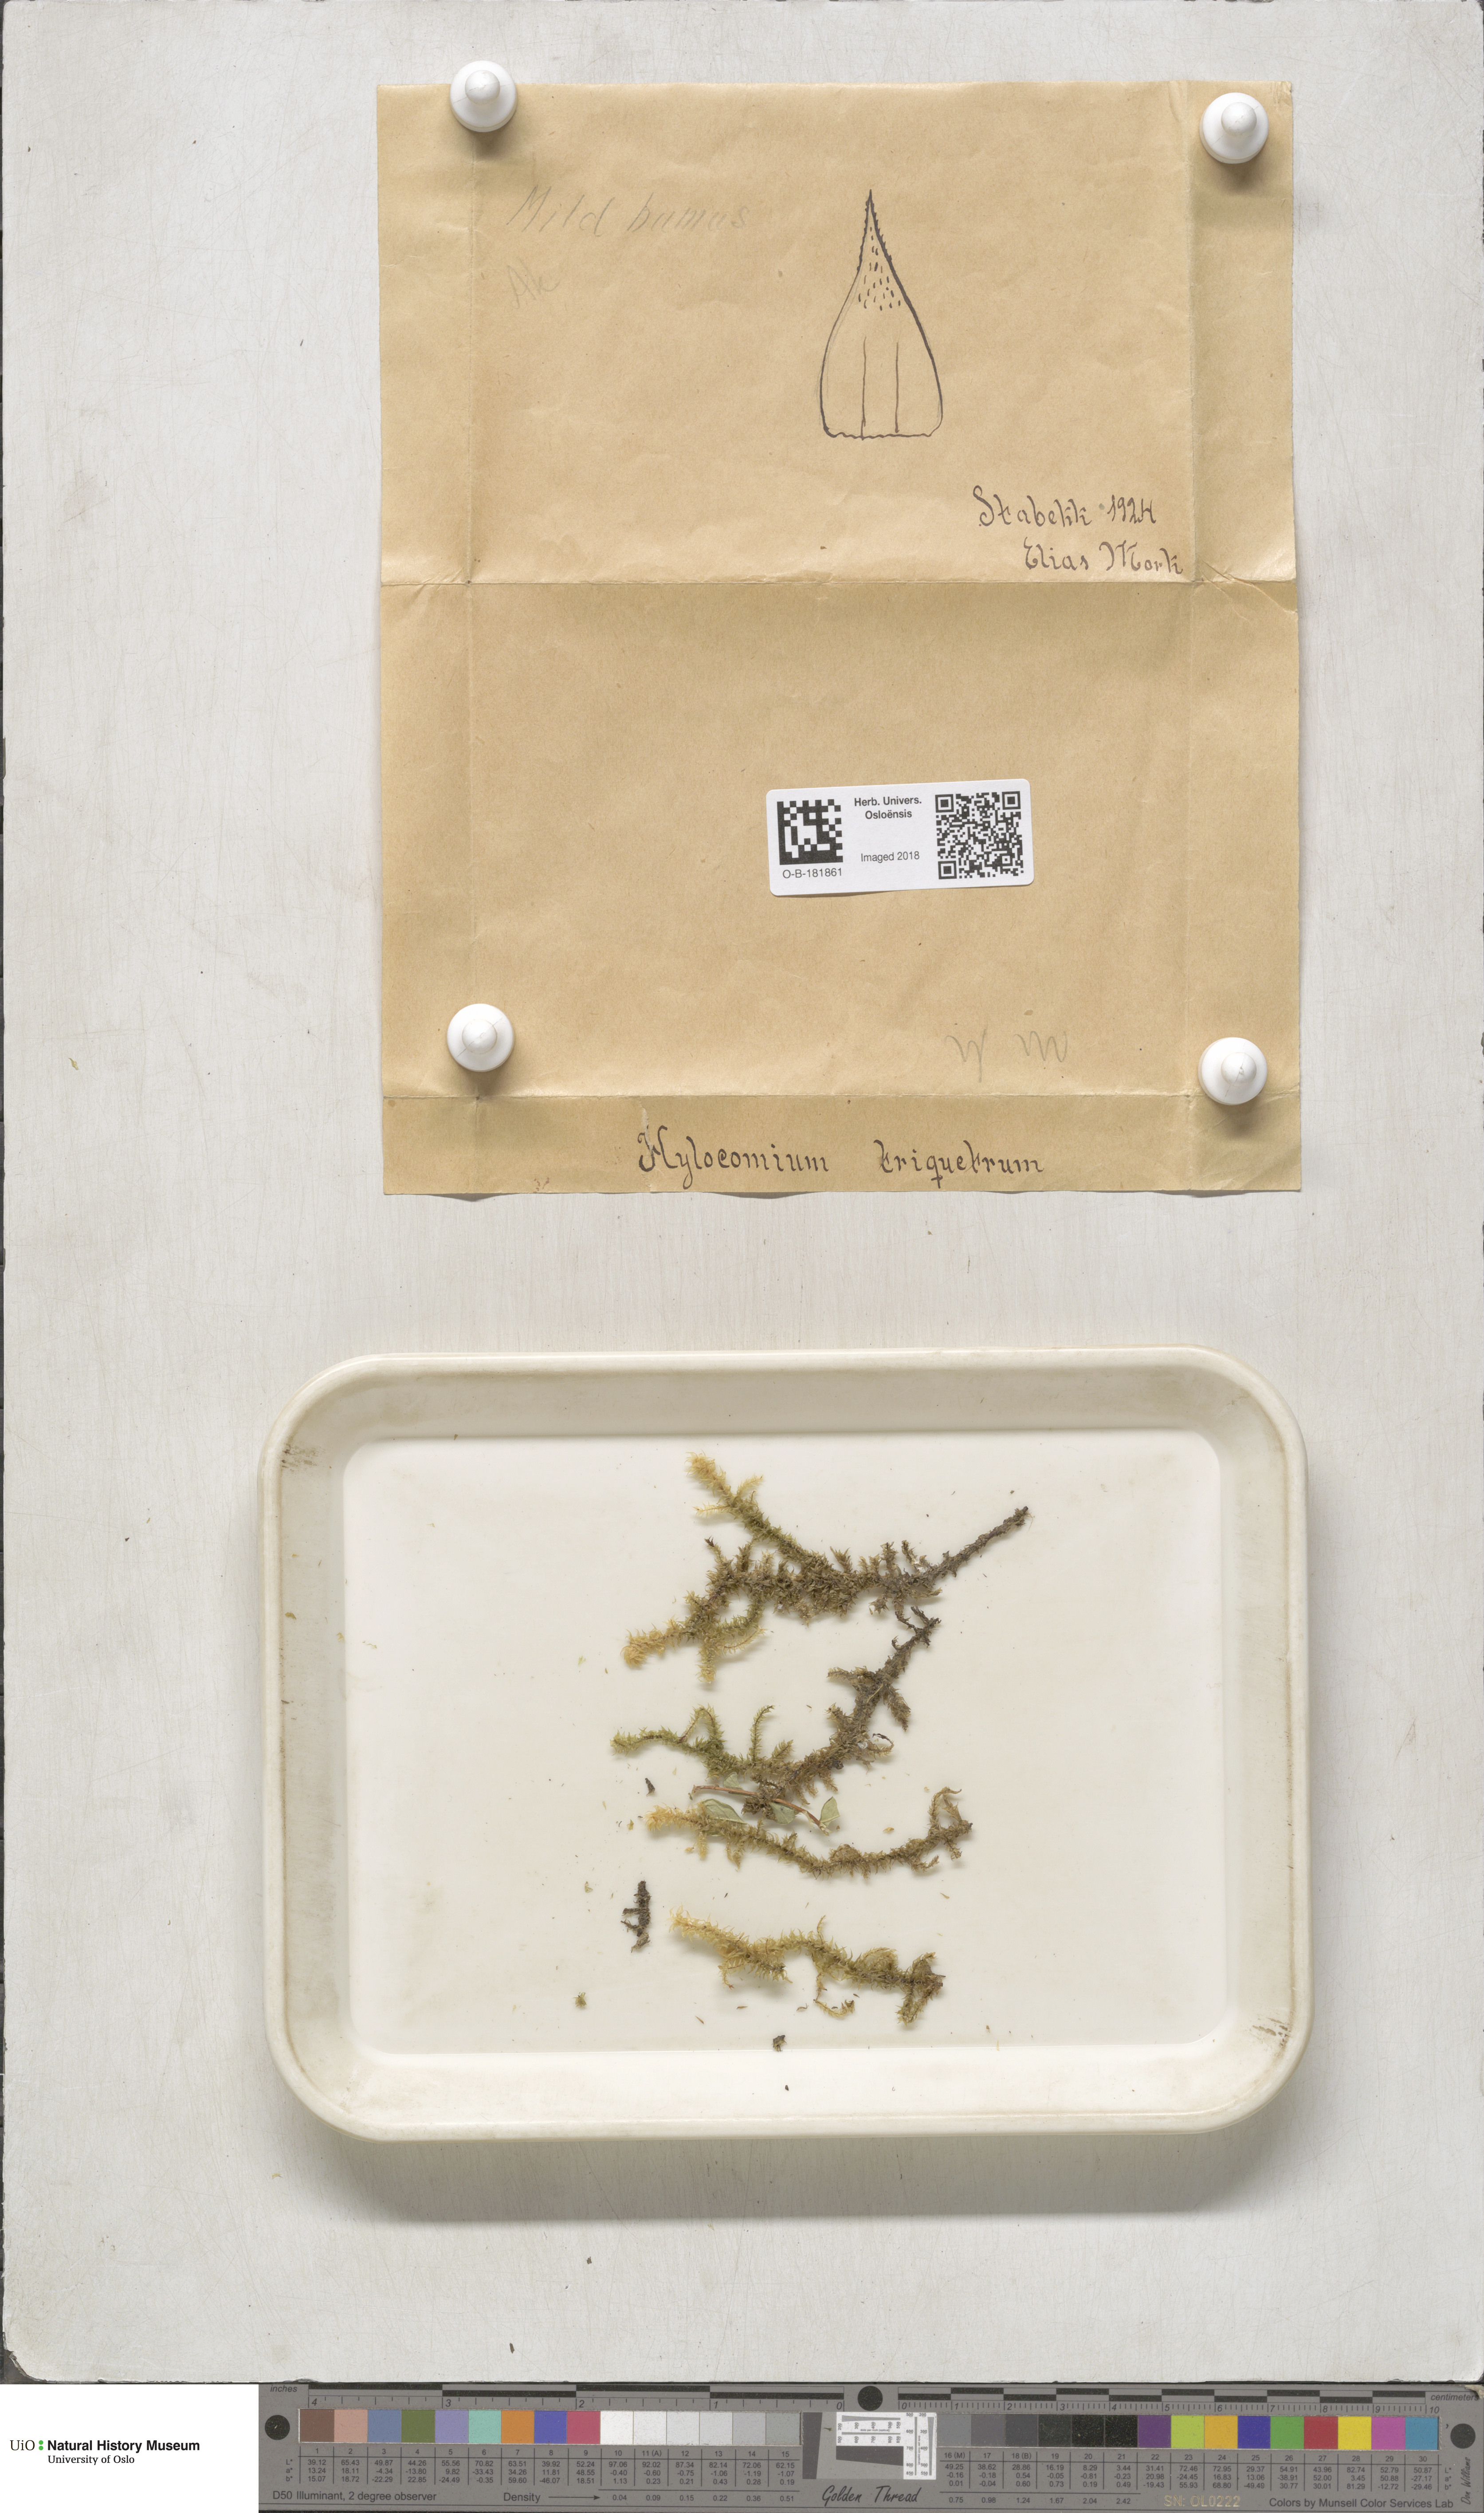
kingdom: Plantae
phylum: Bryophyta
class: Bryopsida
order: Hypnales
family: Hylocomiaceae
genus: Hylocomiadelphus
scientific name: Hylocomiadelphus triquetrus
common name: Rough goose neck moss
